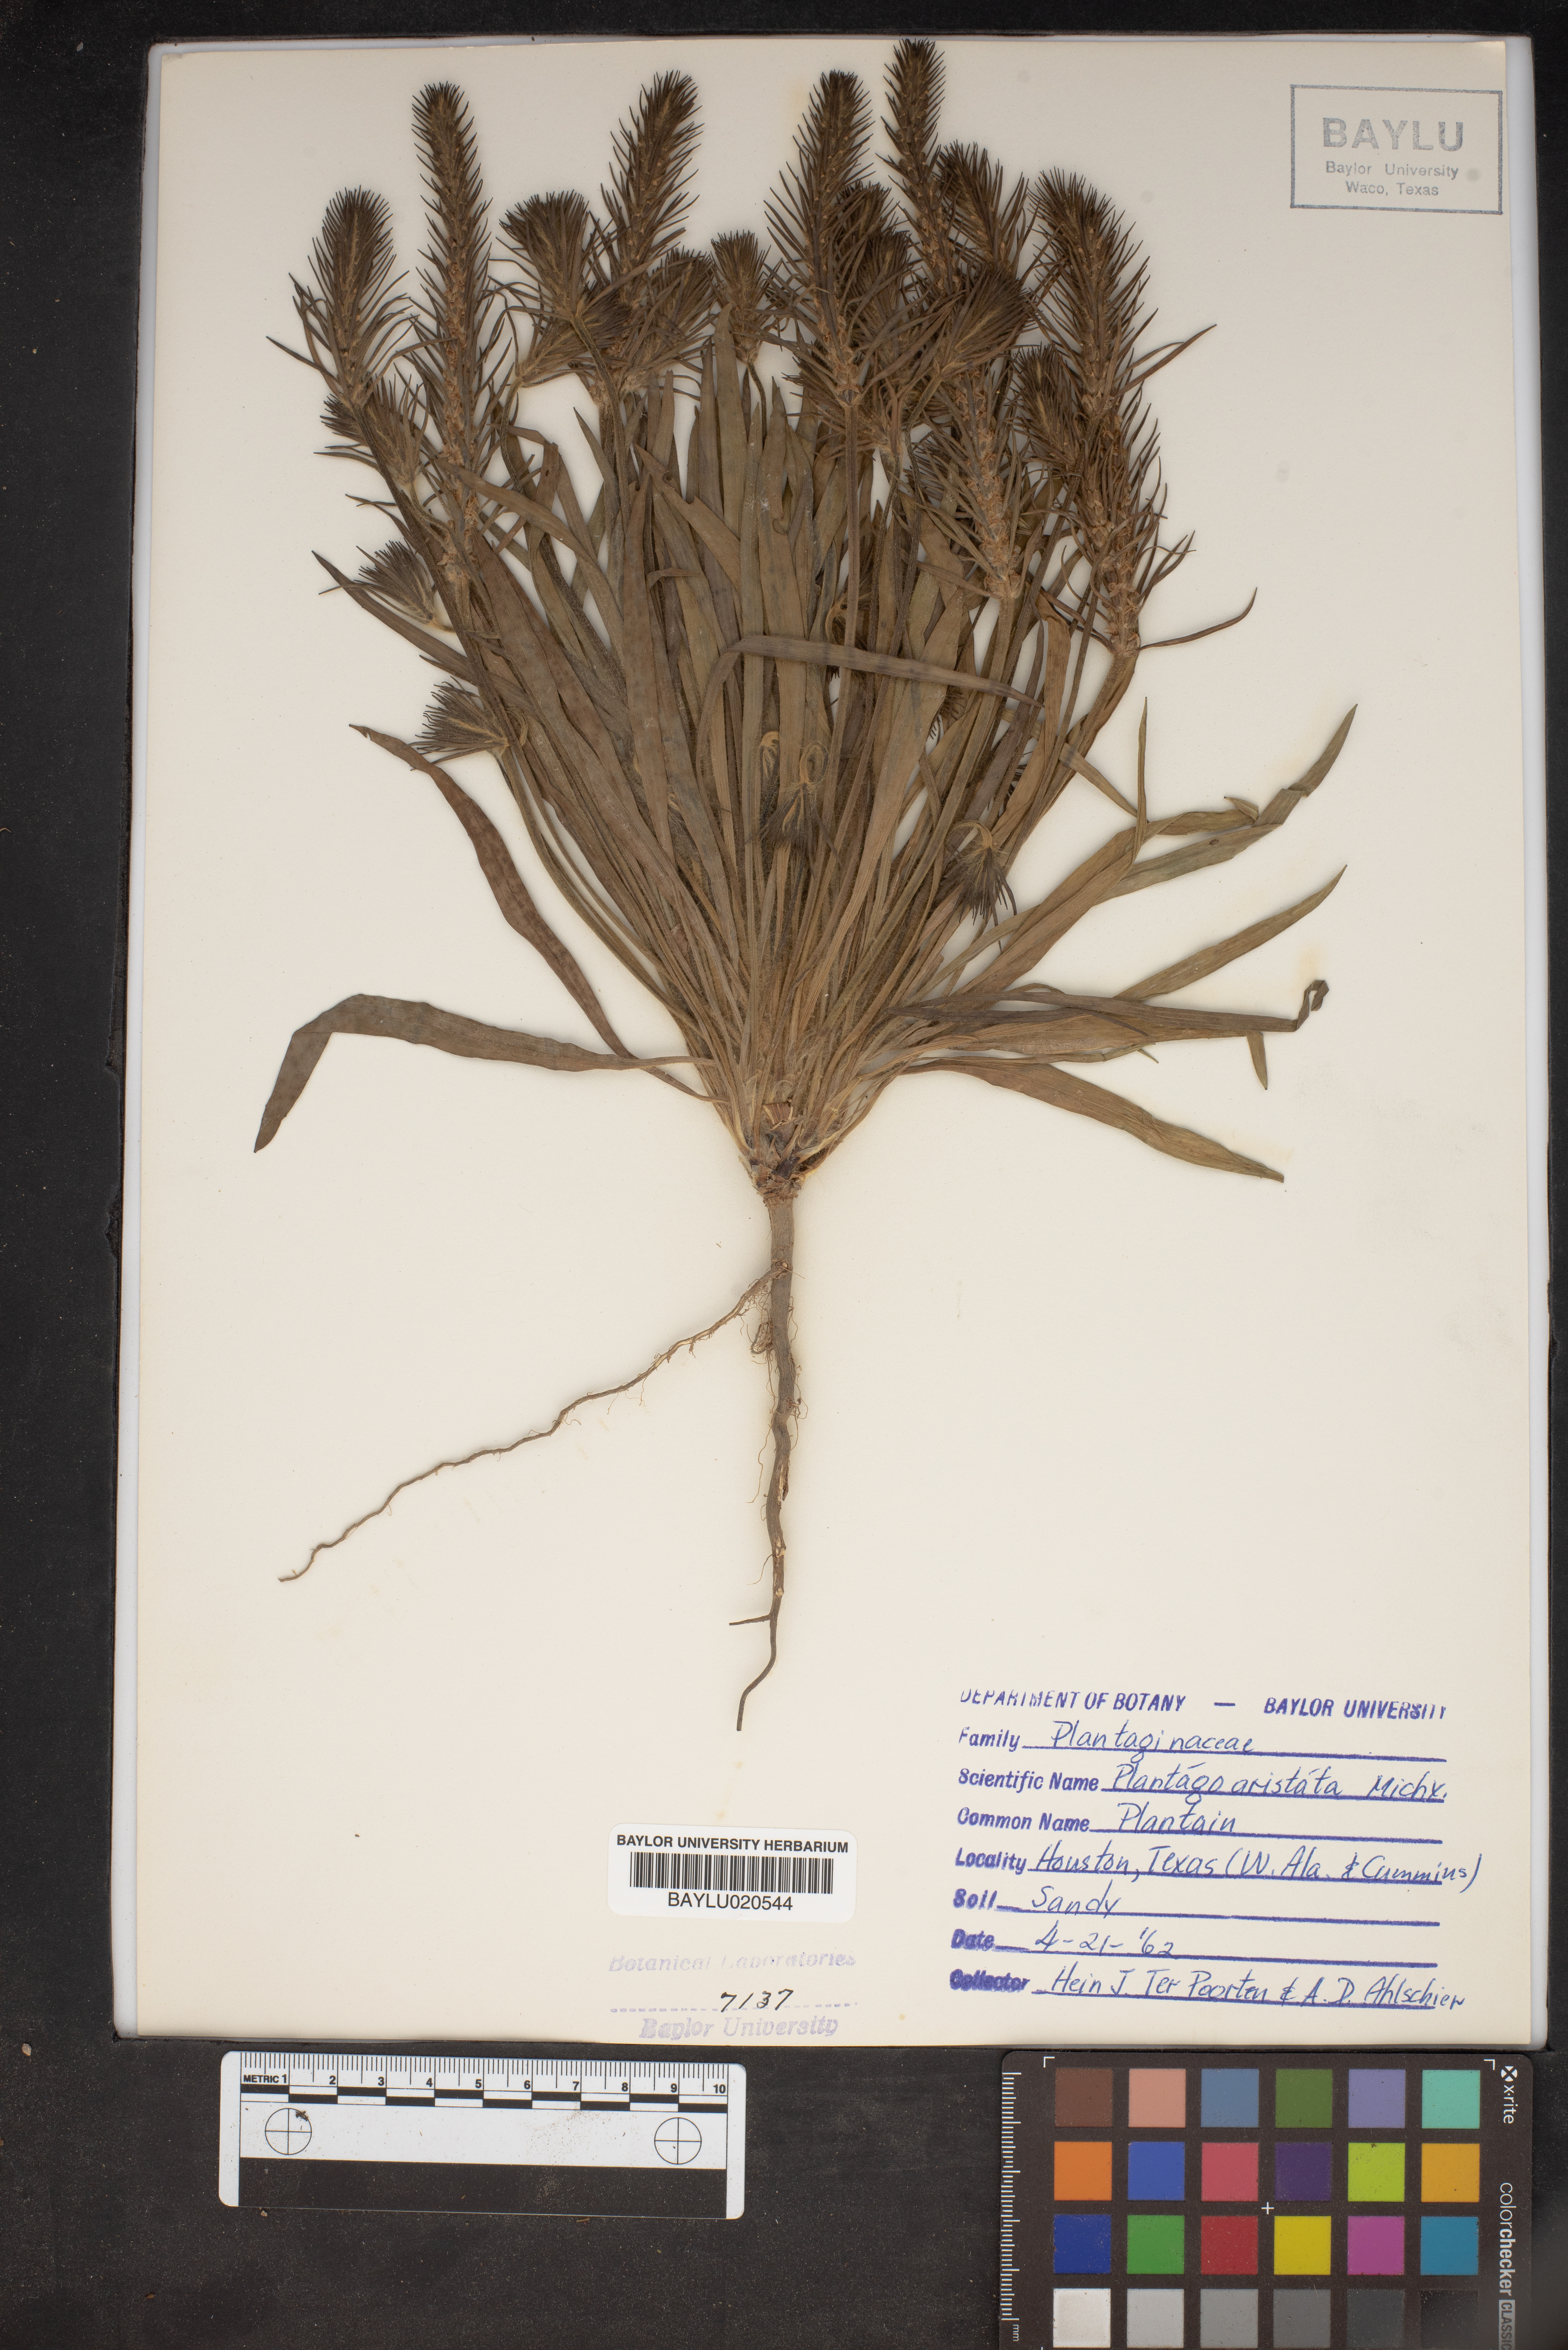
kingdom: Plantae
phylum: Tracheophyta
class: Magnoliopsida
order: Lamiales
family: Plantaginaceae
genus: Plantago
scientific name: Plantago aristata
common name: Bracted plantain
